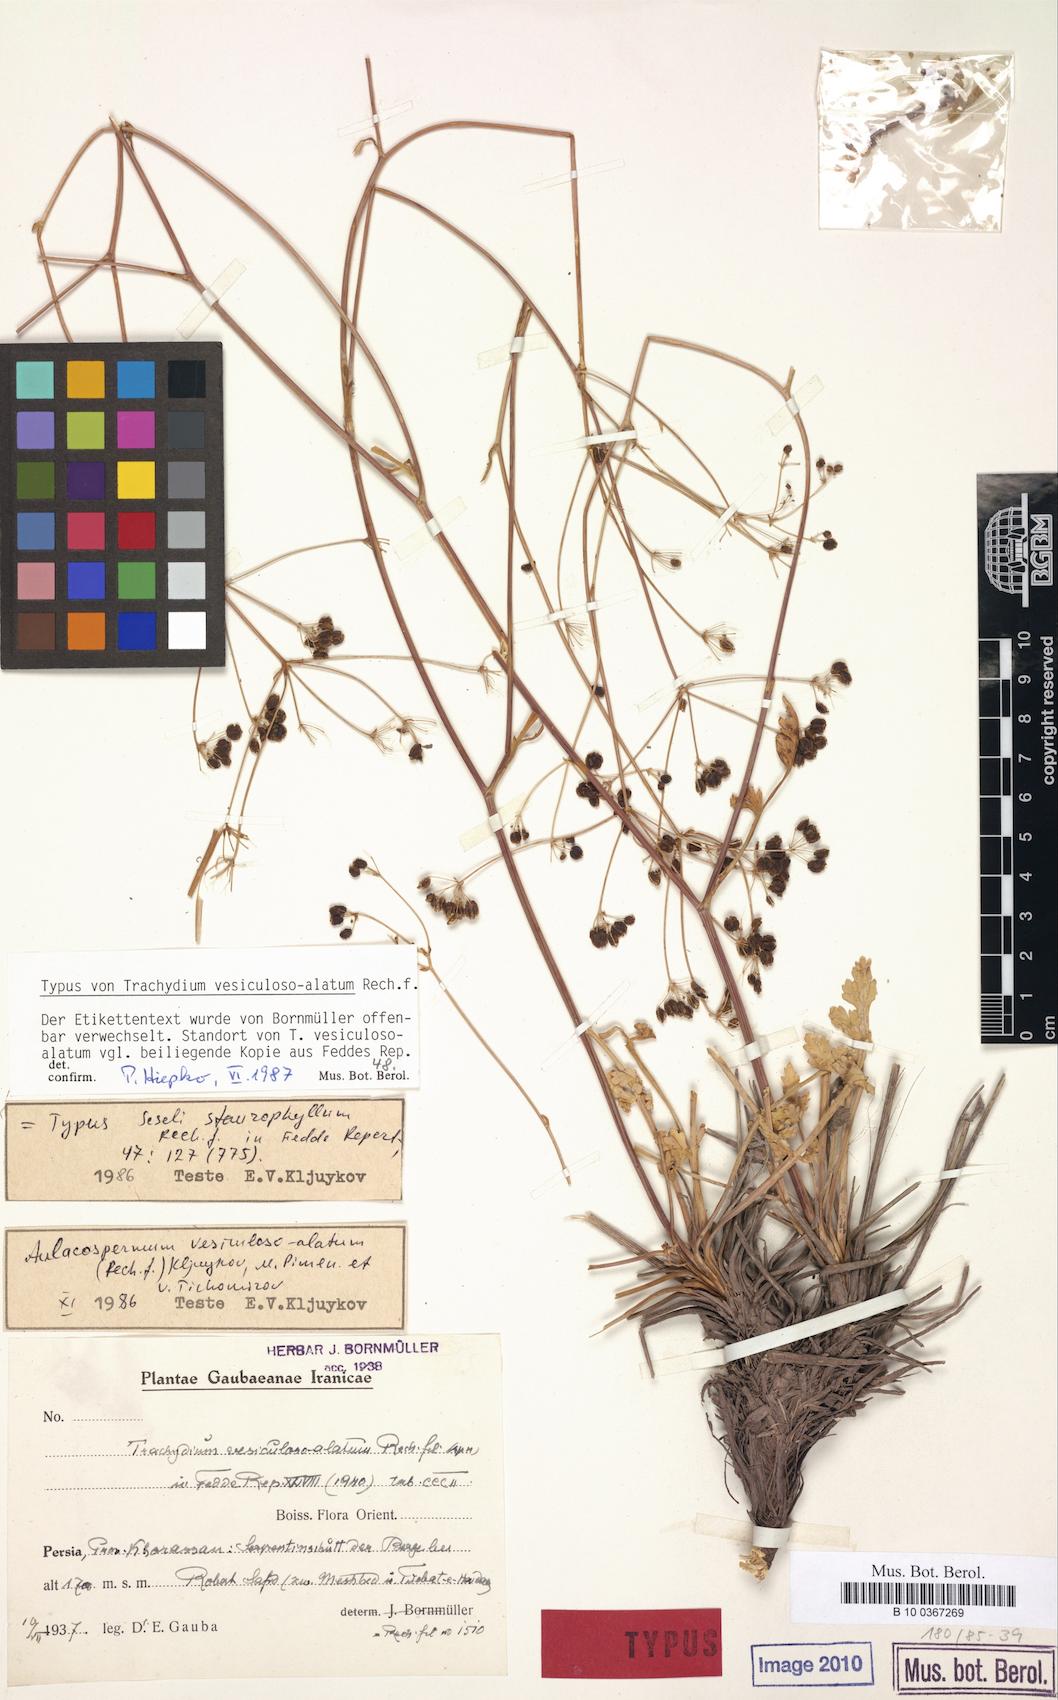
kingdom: Plantae
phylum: Tracheophyta
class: Magnoliopsida
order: Apiales
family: Apiaceae
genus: Pseudotrachydium
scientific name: Pseudotrachydium vesiculosoalatum
